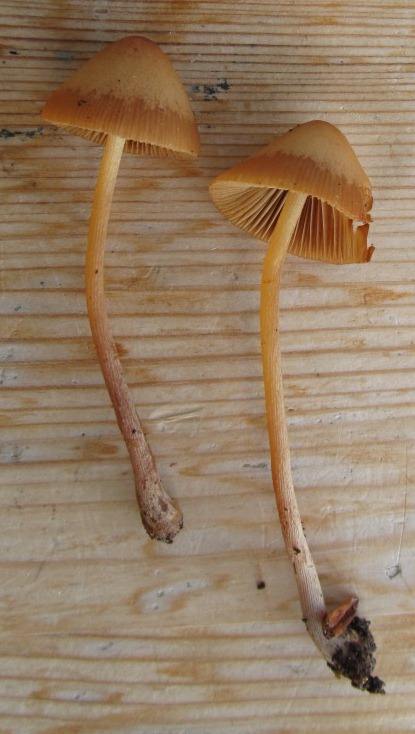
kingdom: Fungi
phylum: Basidiomycota
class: Agaricomycetes
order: Agaricales
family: Bolbitiaceae
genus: Conocybe
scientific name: Conocybe subpubescens
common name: krat-keglehat
